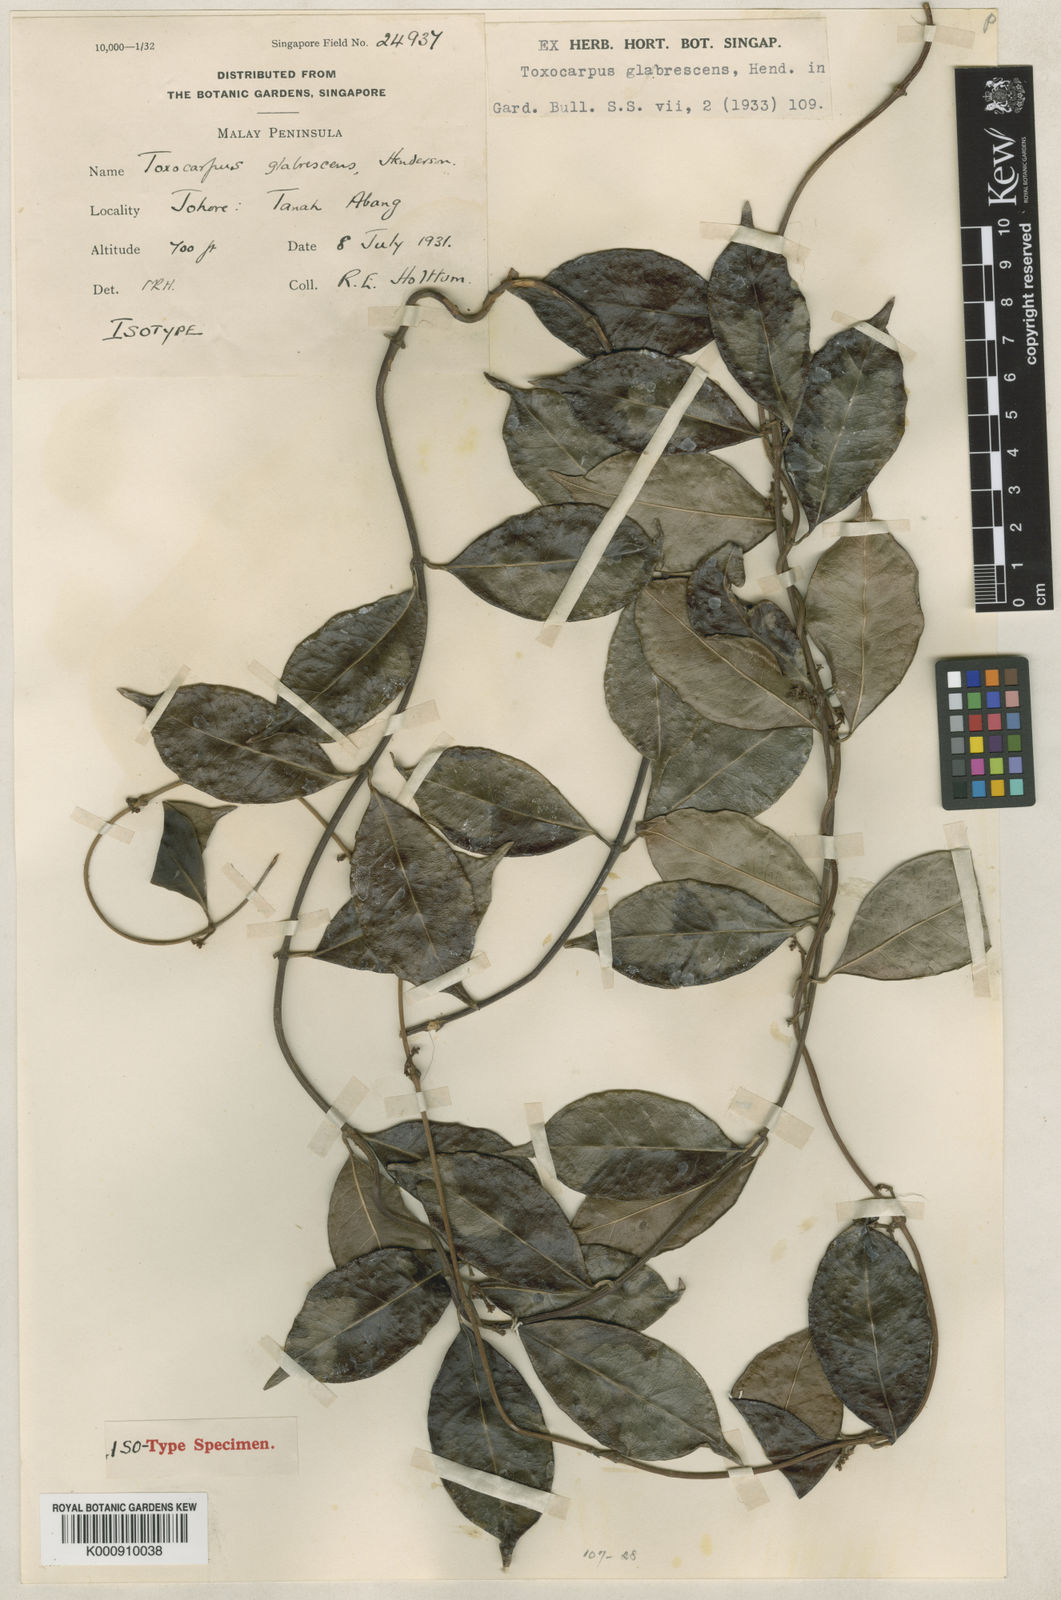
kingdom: Plantae
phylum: Tracheophyta
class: Magnoliopsida
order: Gentianales
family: Apocynaceae
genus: Secamone
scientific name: Secamone glabrescens
